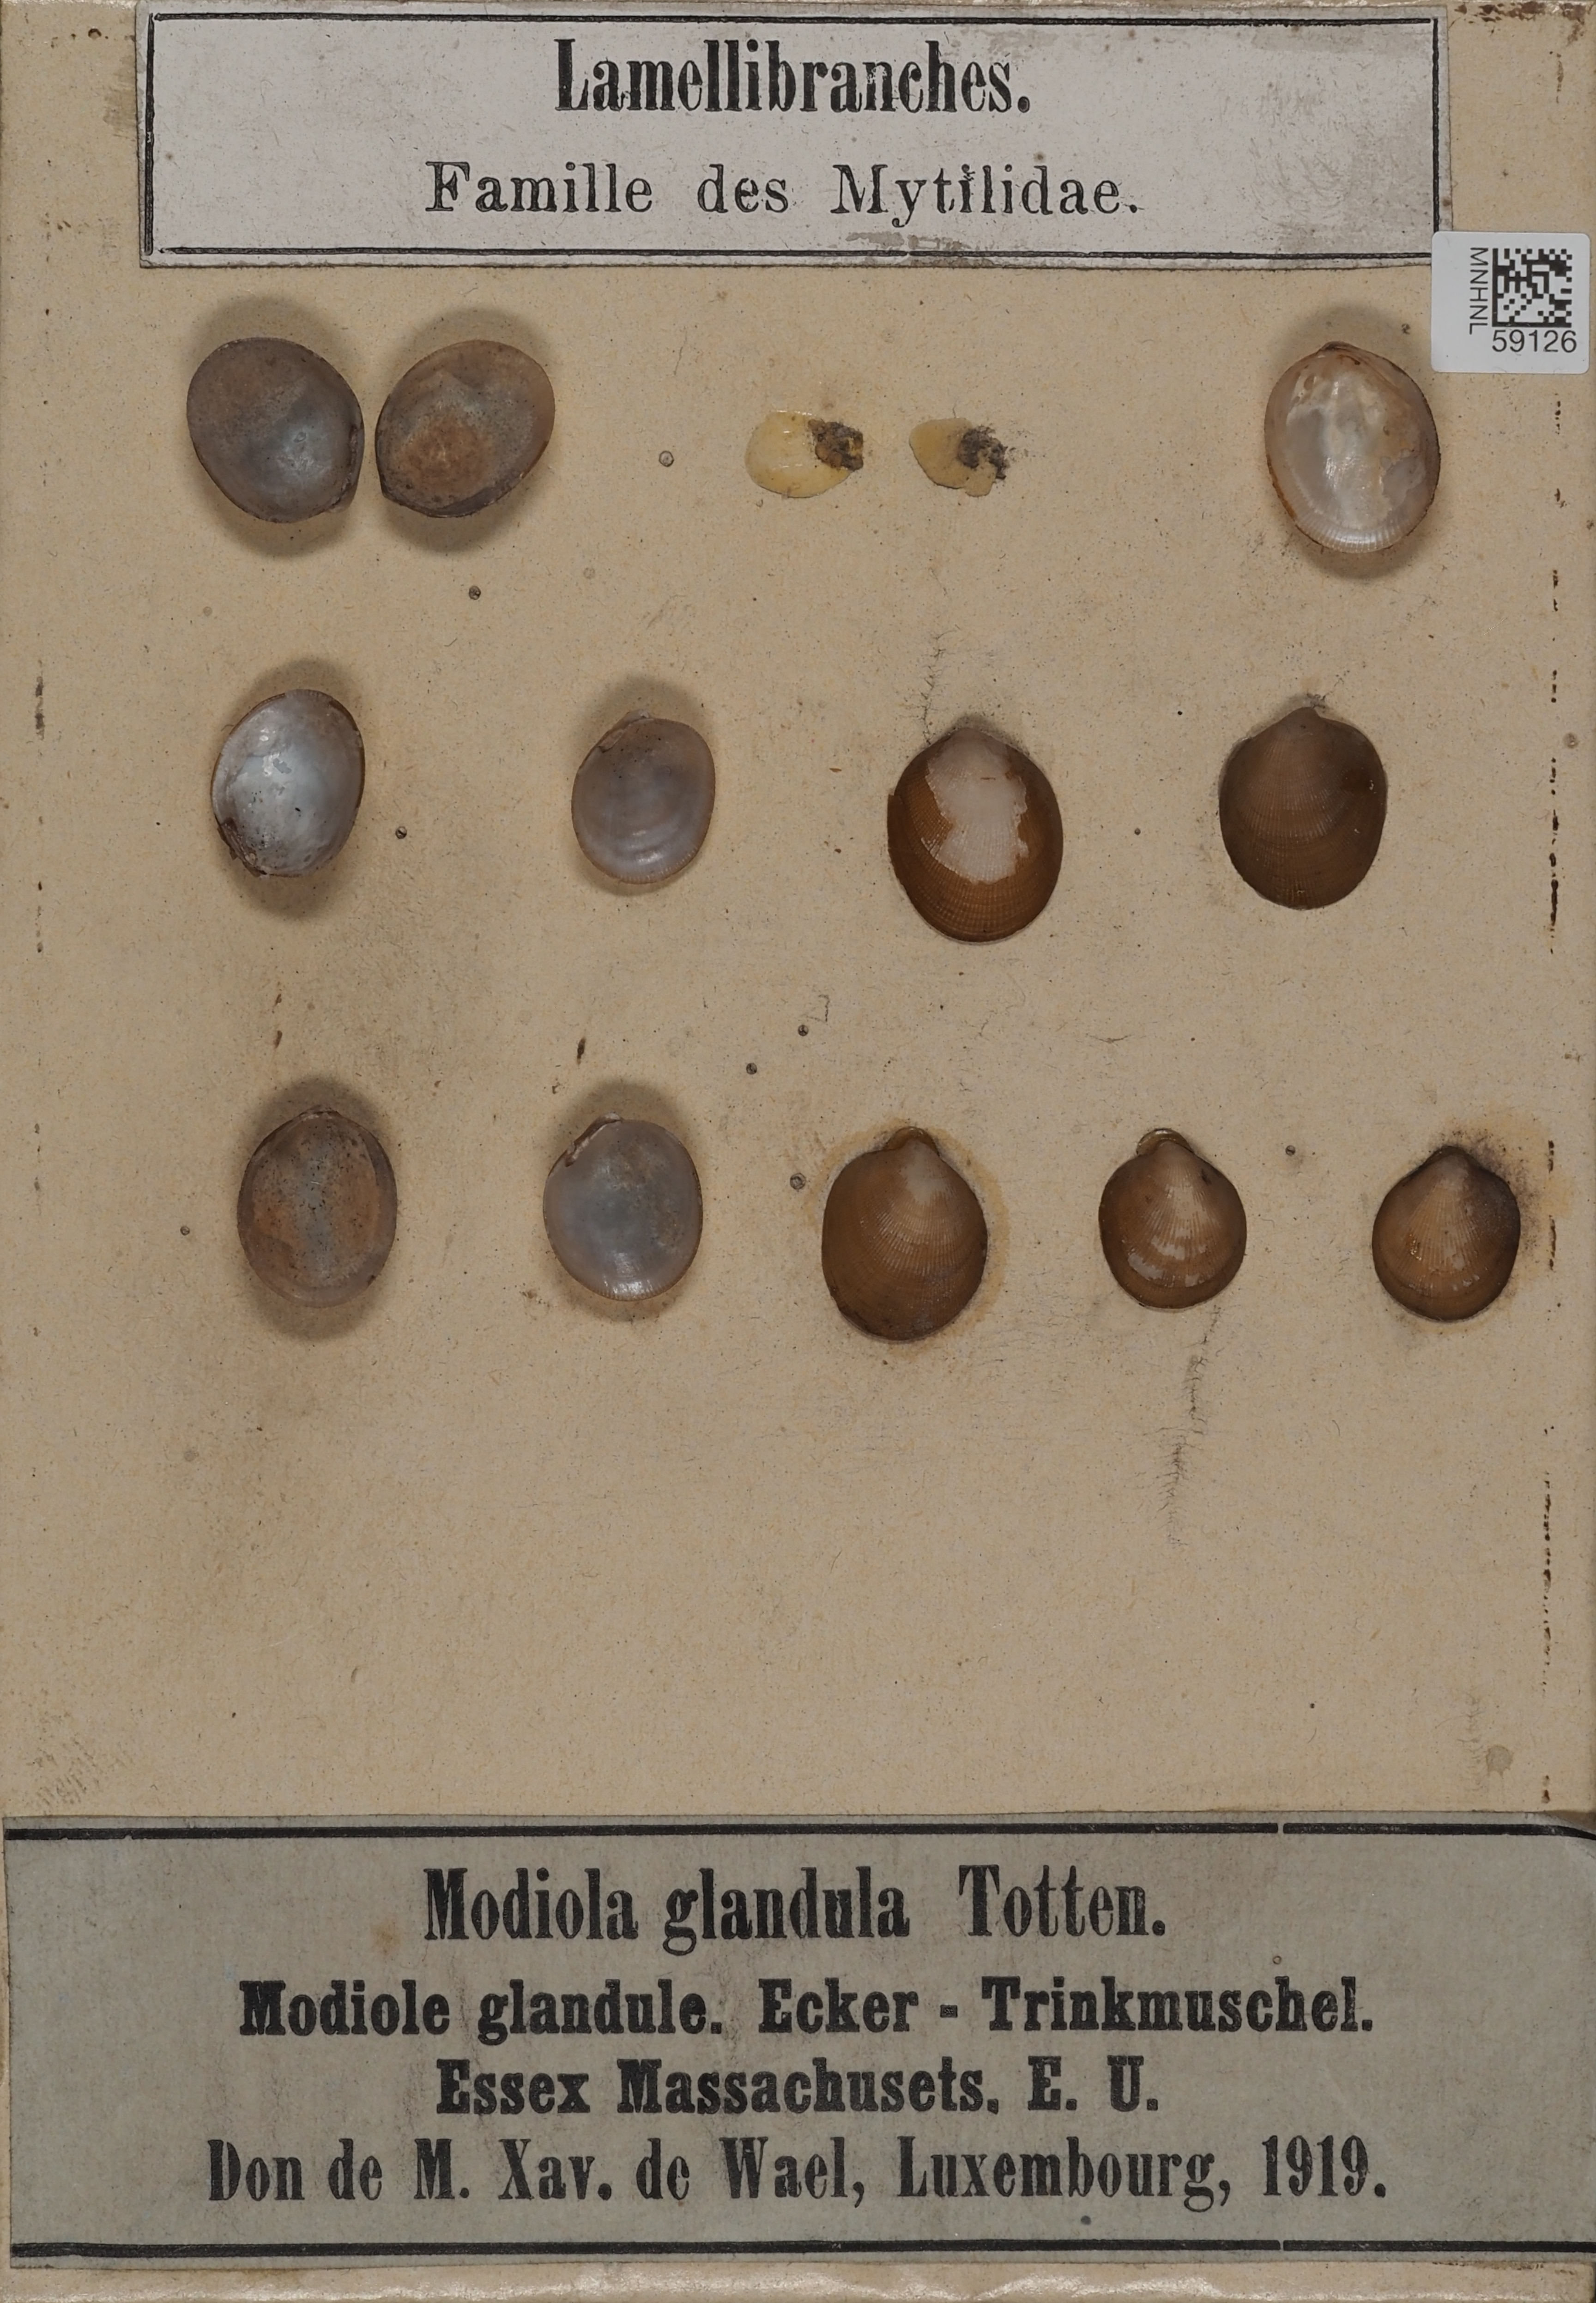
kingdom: Animalia
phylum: Mollusca
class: Bivalvia
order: Mytilida
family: Mytilidae
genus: Solamen
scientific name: Solamen glandula
